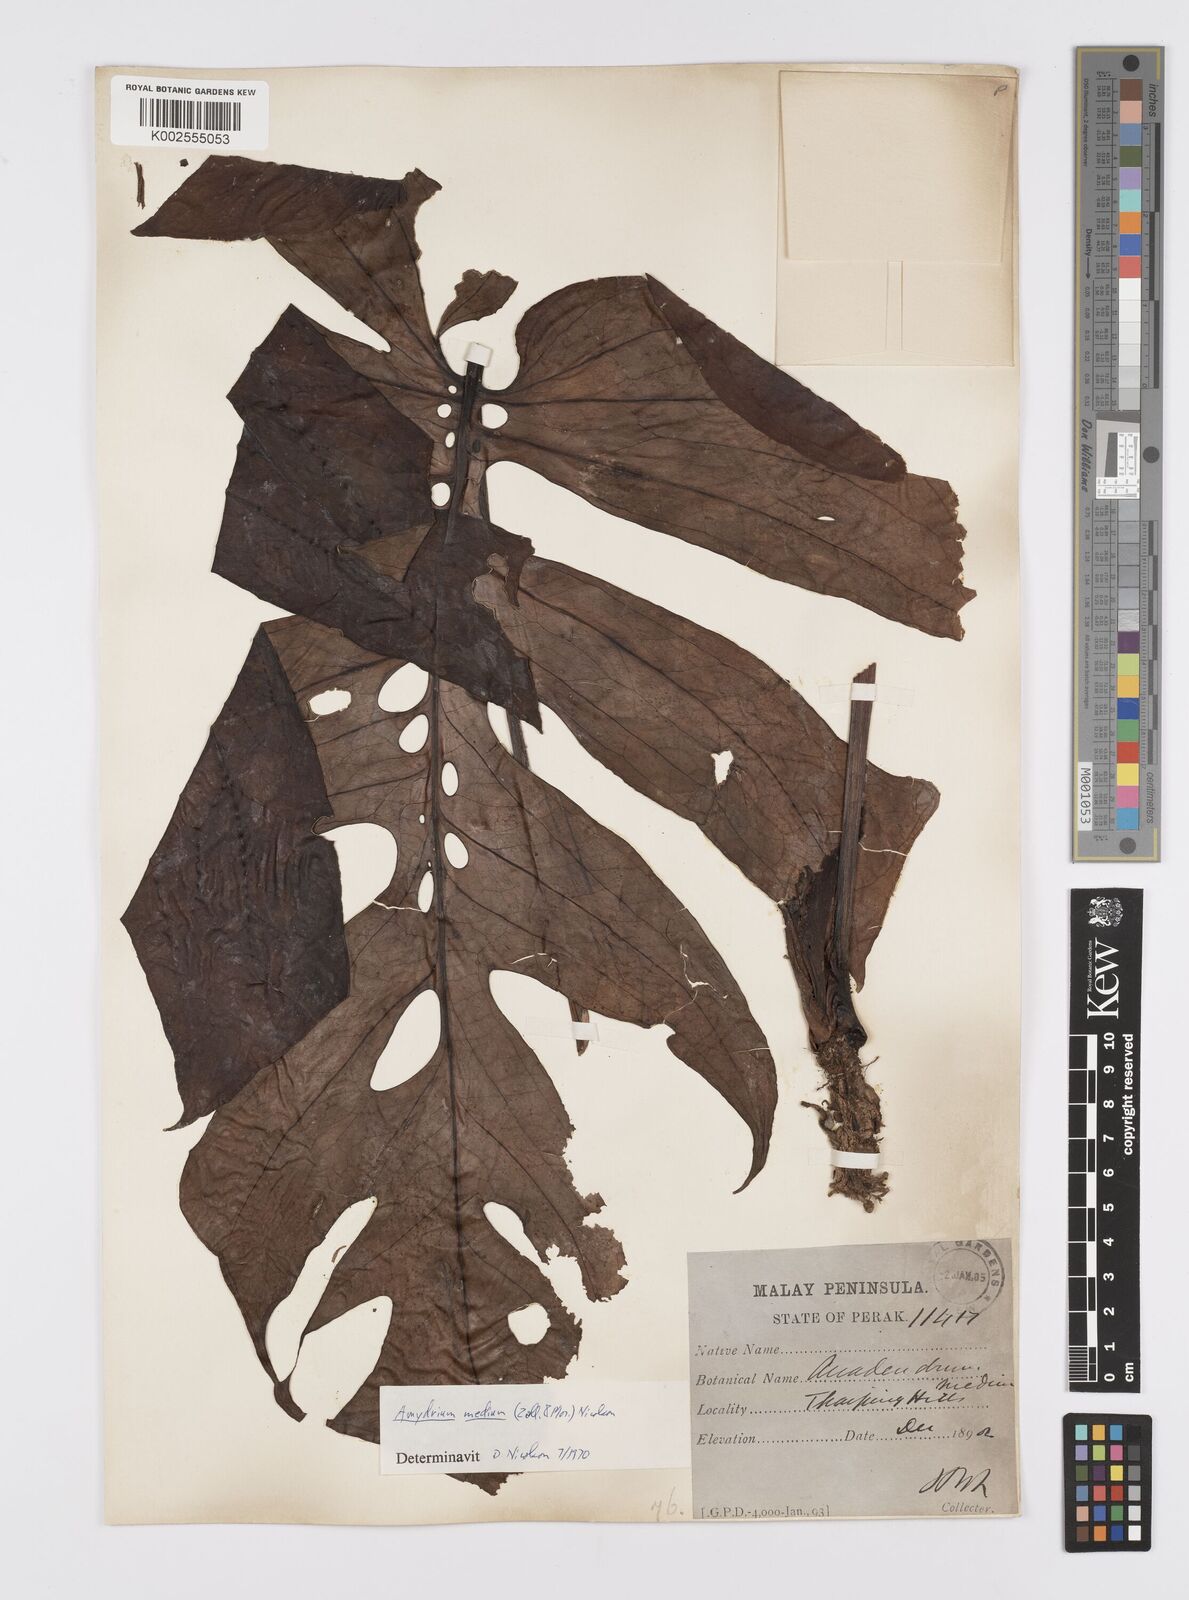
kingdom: Plantae
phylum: Tracheophyta
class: Liliopsida
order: Alismatales
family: Araceae
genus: Amydrium
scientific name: Amydrium medium
